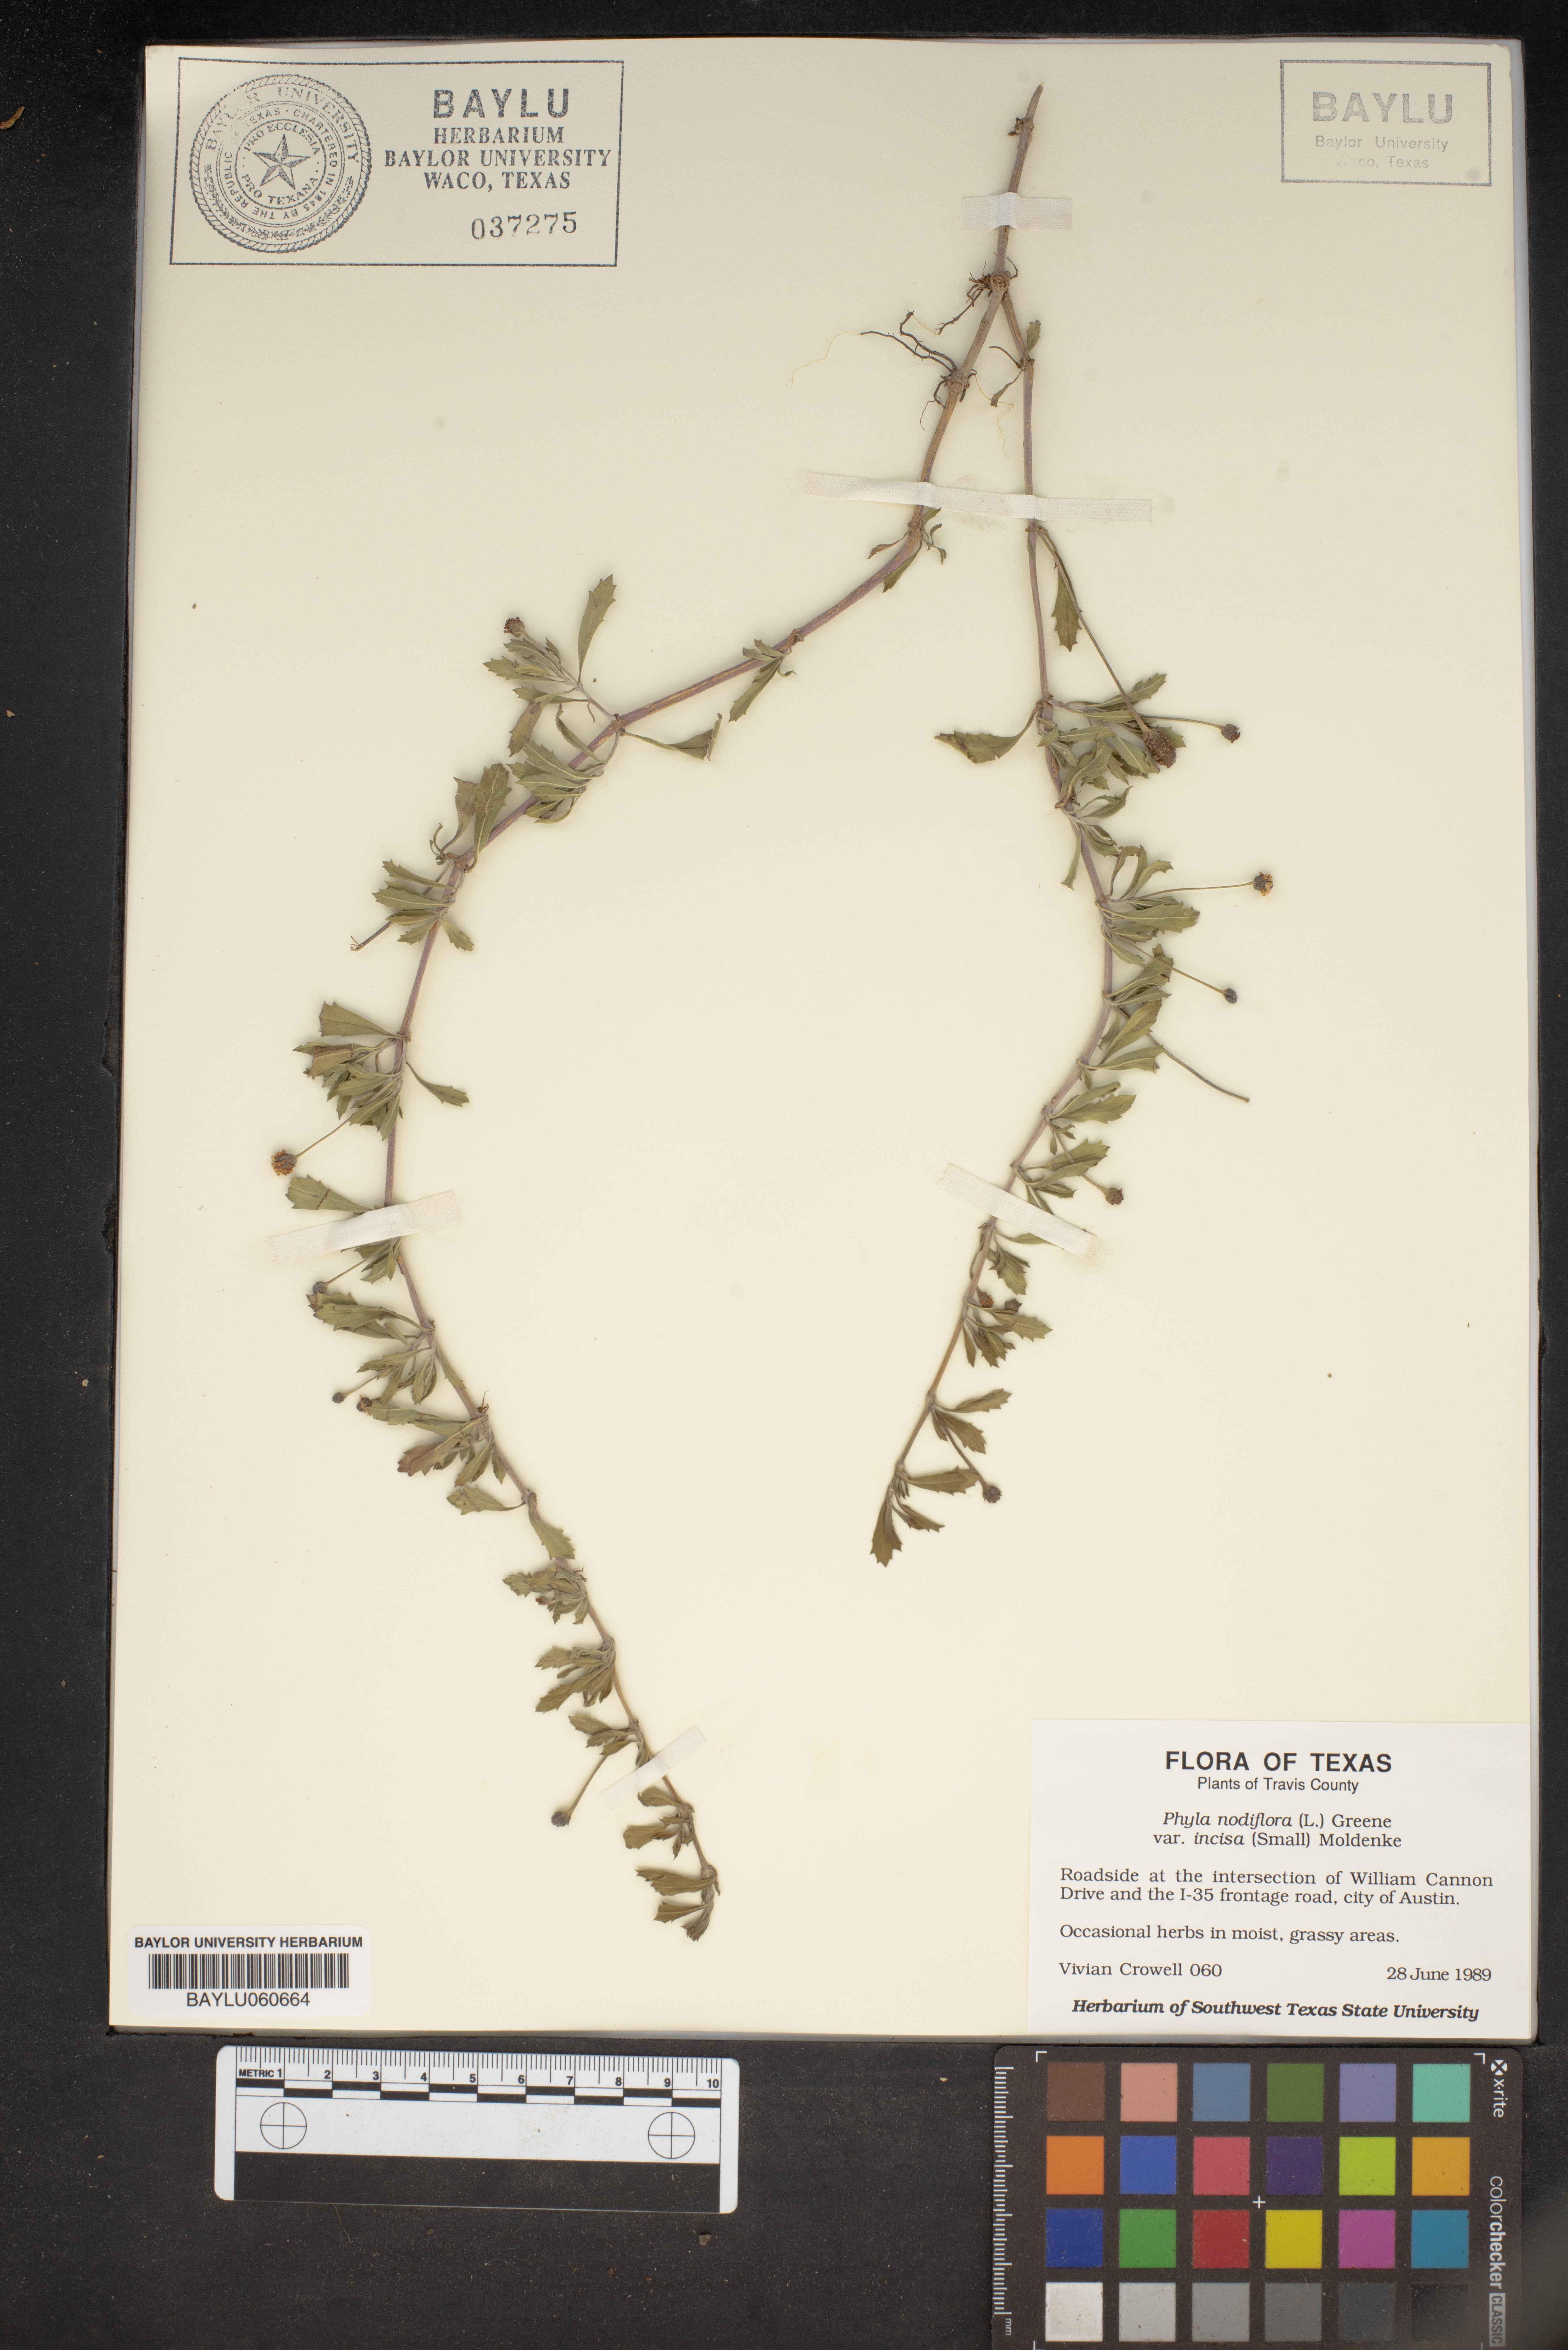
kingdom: Plantae
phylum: Tracheophyta
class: Magnoliopsida
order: Lamiales
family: Verbenaceae
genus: Phyla
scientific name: Phyla nodiflora
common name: Frogfruit
